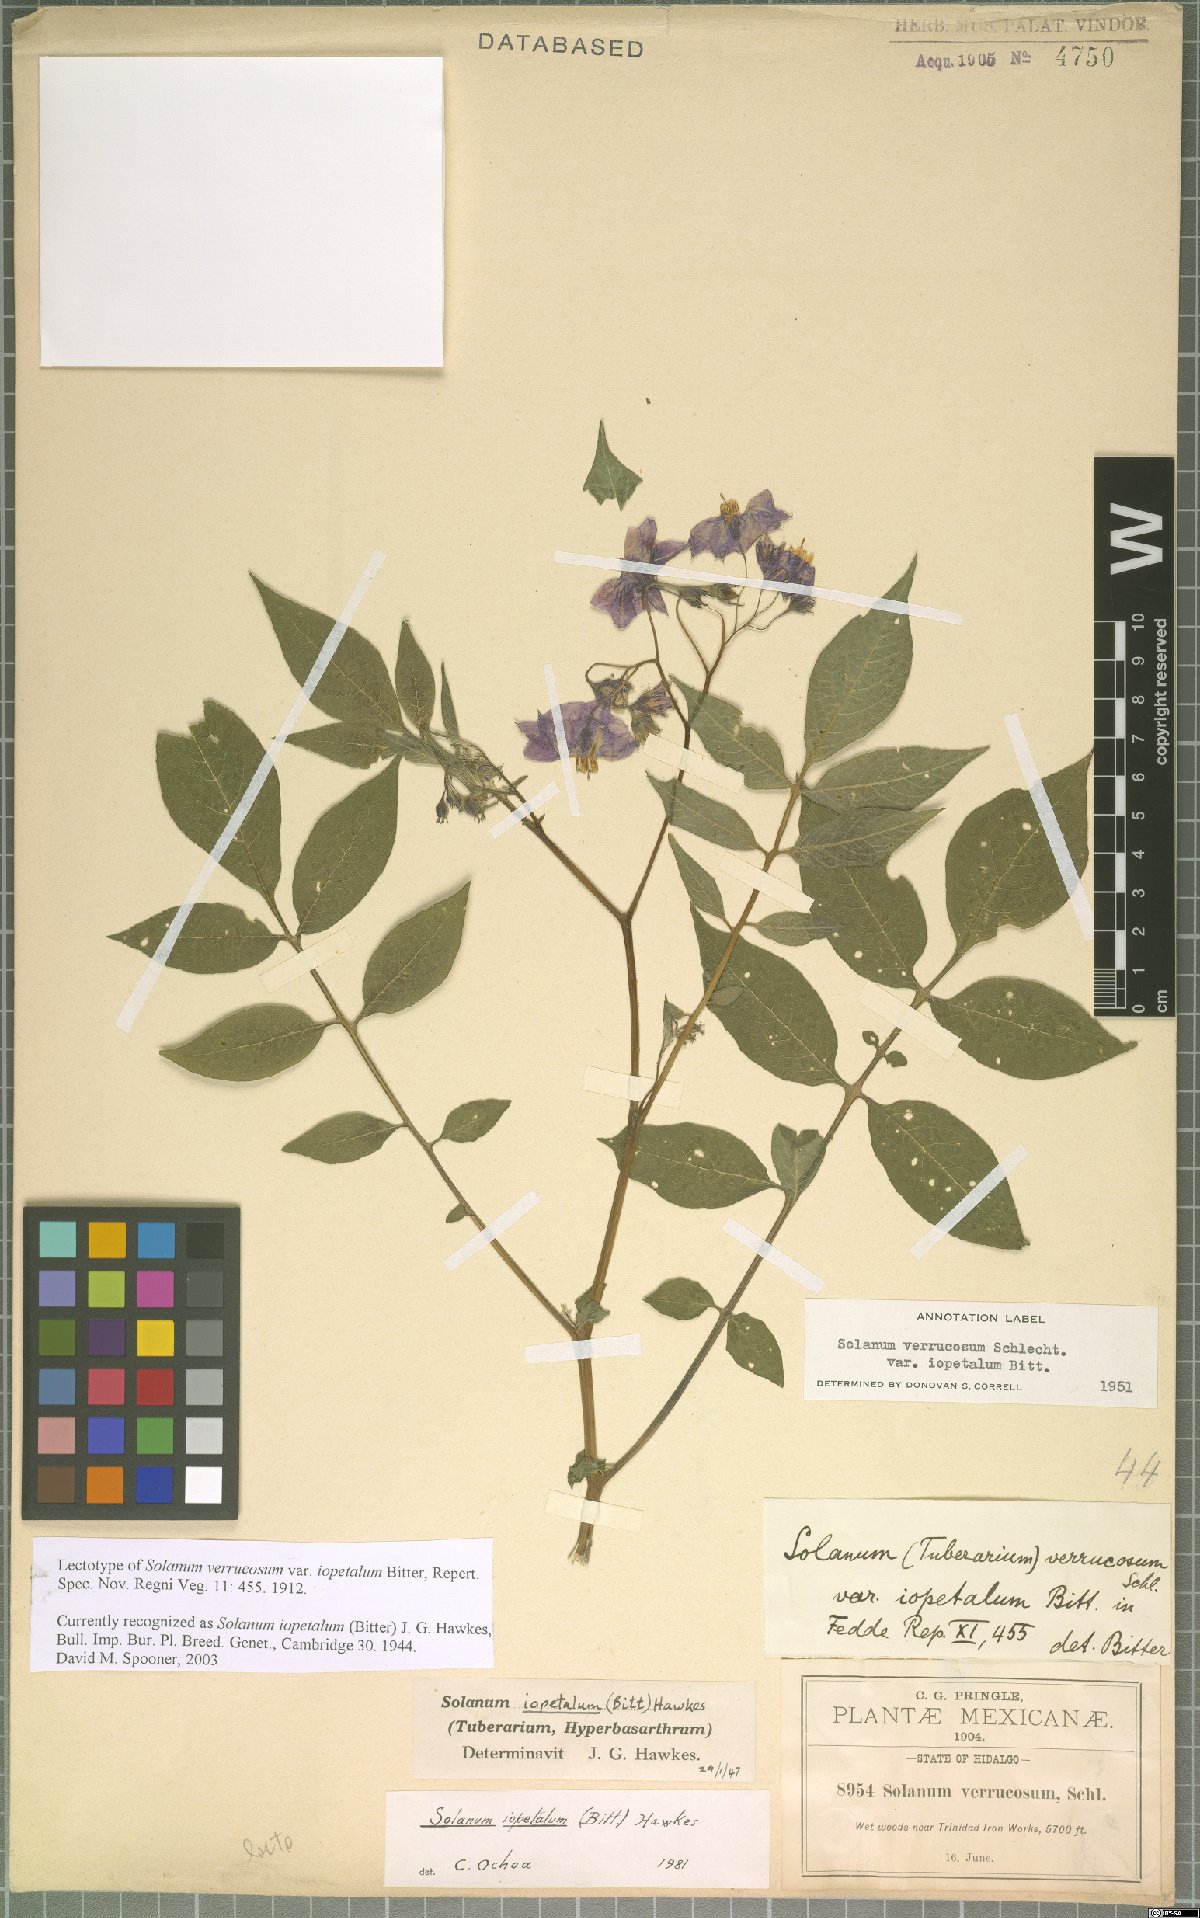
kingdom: Plantae
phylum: Tracheophyta
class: Magnoliopsida
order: Solanales
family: Solanaceae
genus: Solanum
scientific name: Solanum iopetalum
